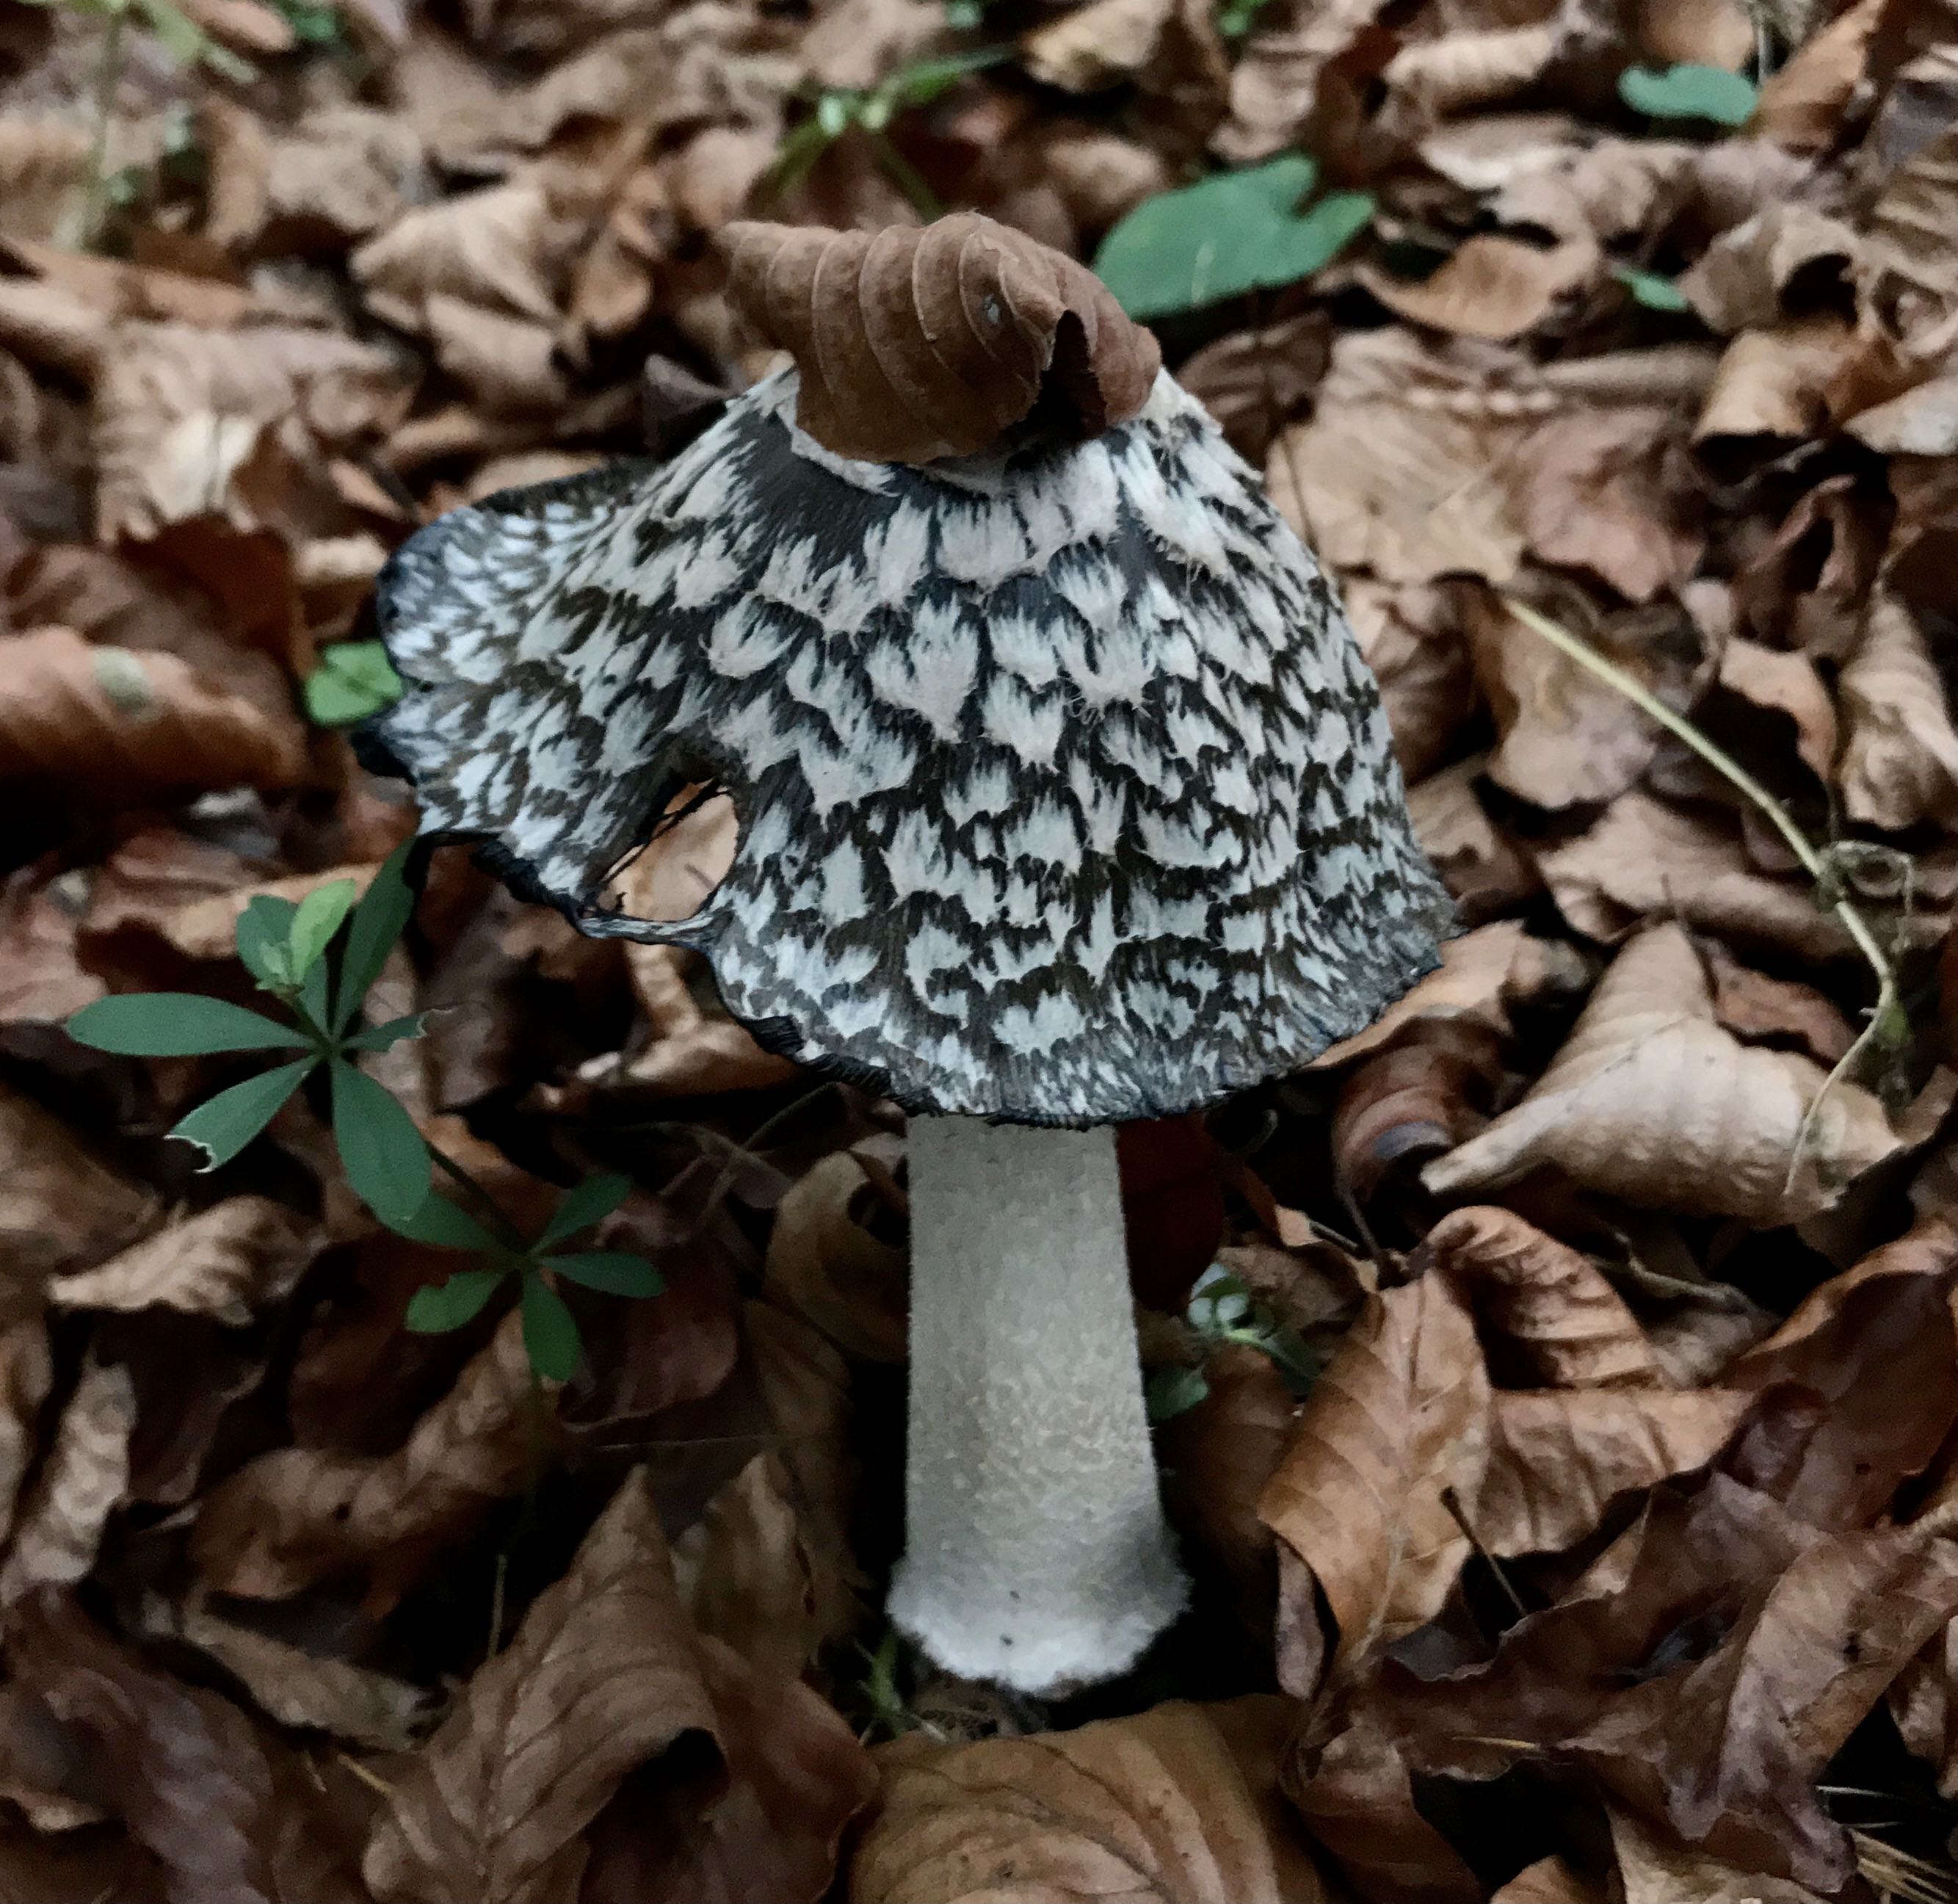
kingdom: Fungi
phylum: Basidiomycota
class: Agaricomycetes
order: Agaricales
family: Psathyrellaceae
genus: Coprinopsis
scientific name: Coprinopsis picacea
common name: skade-blækhat
